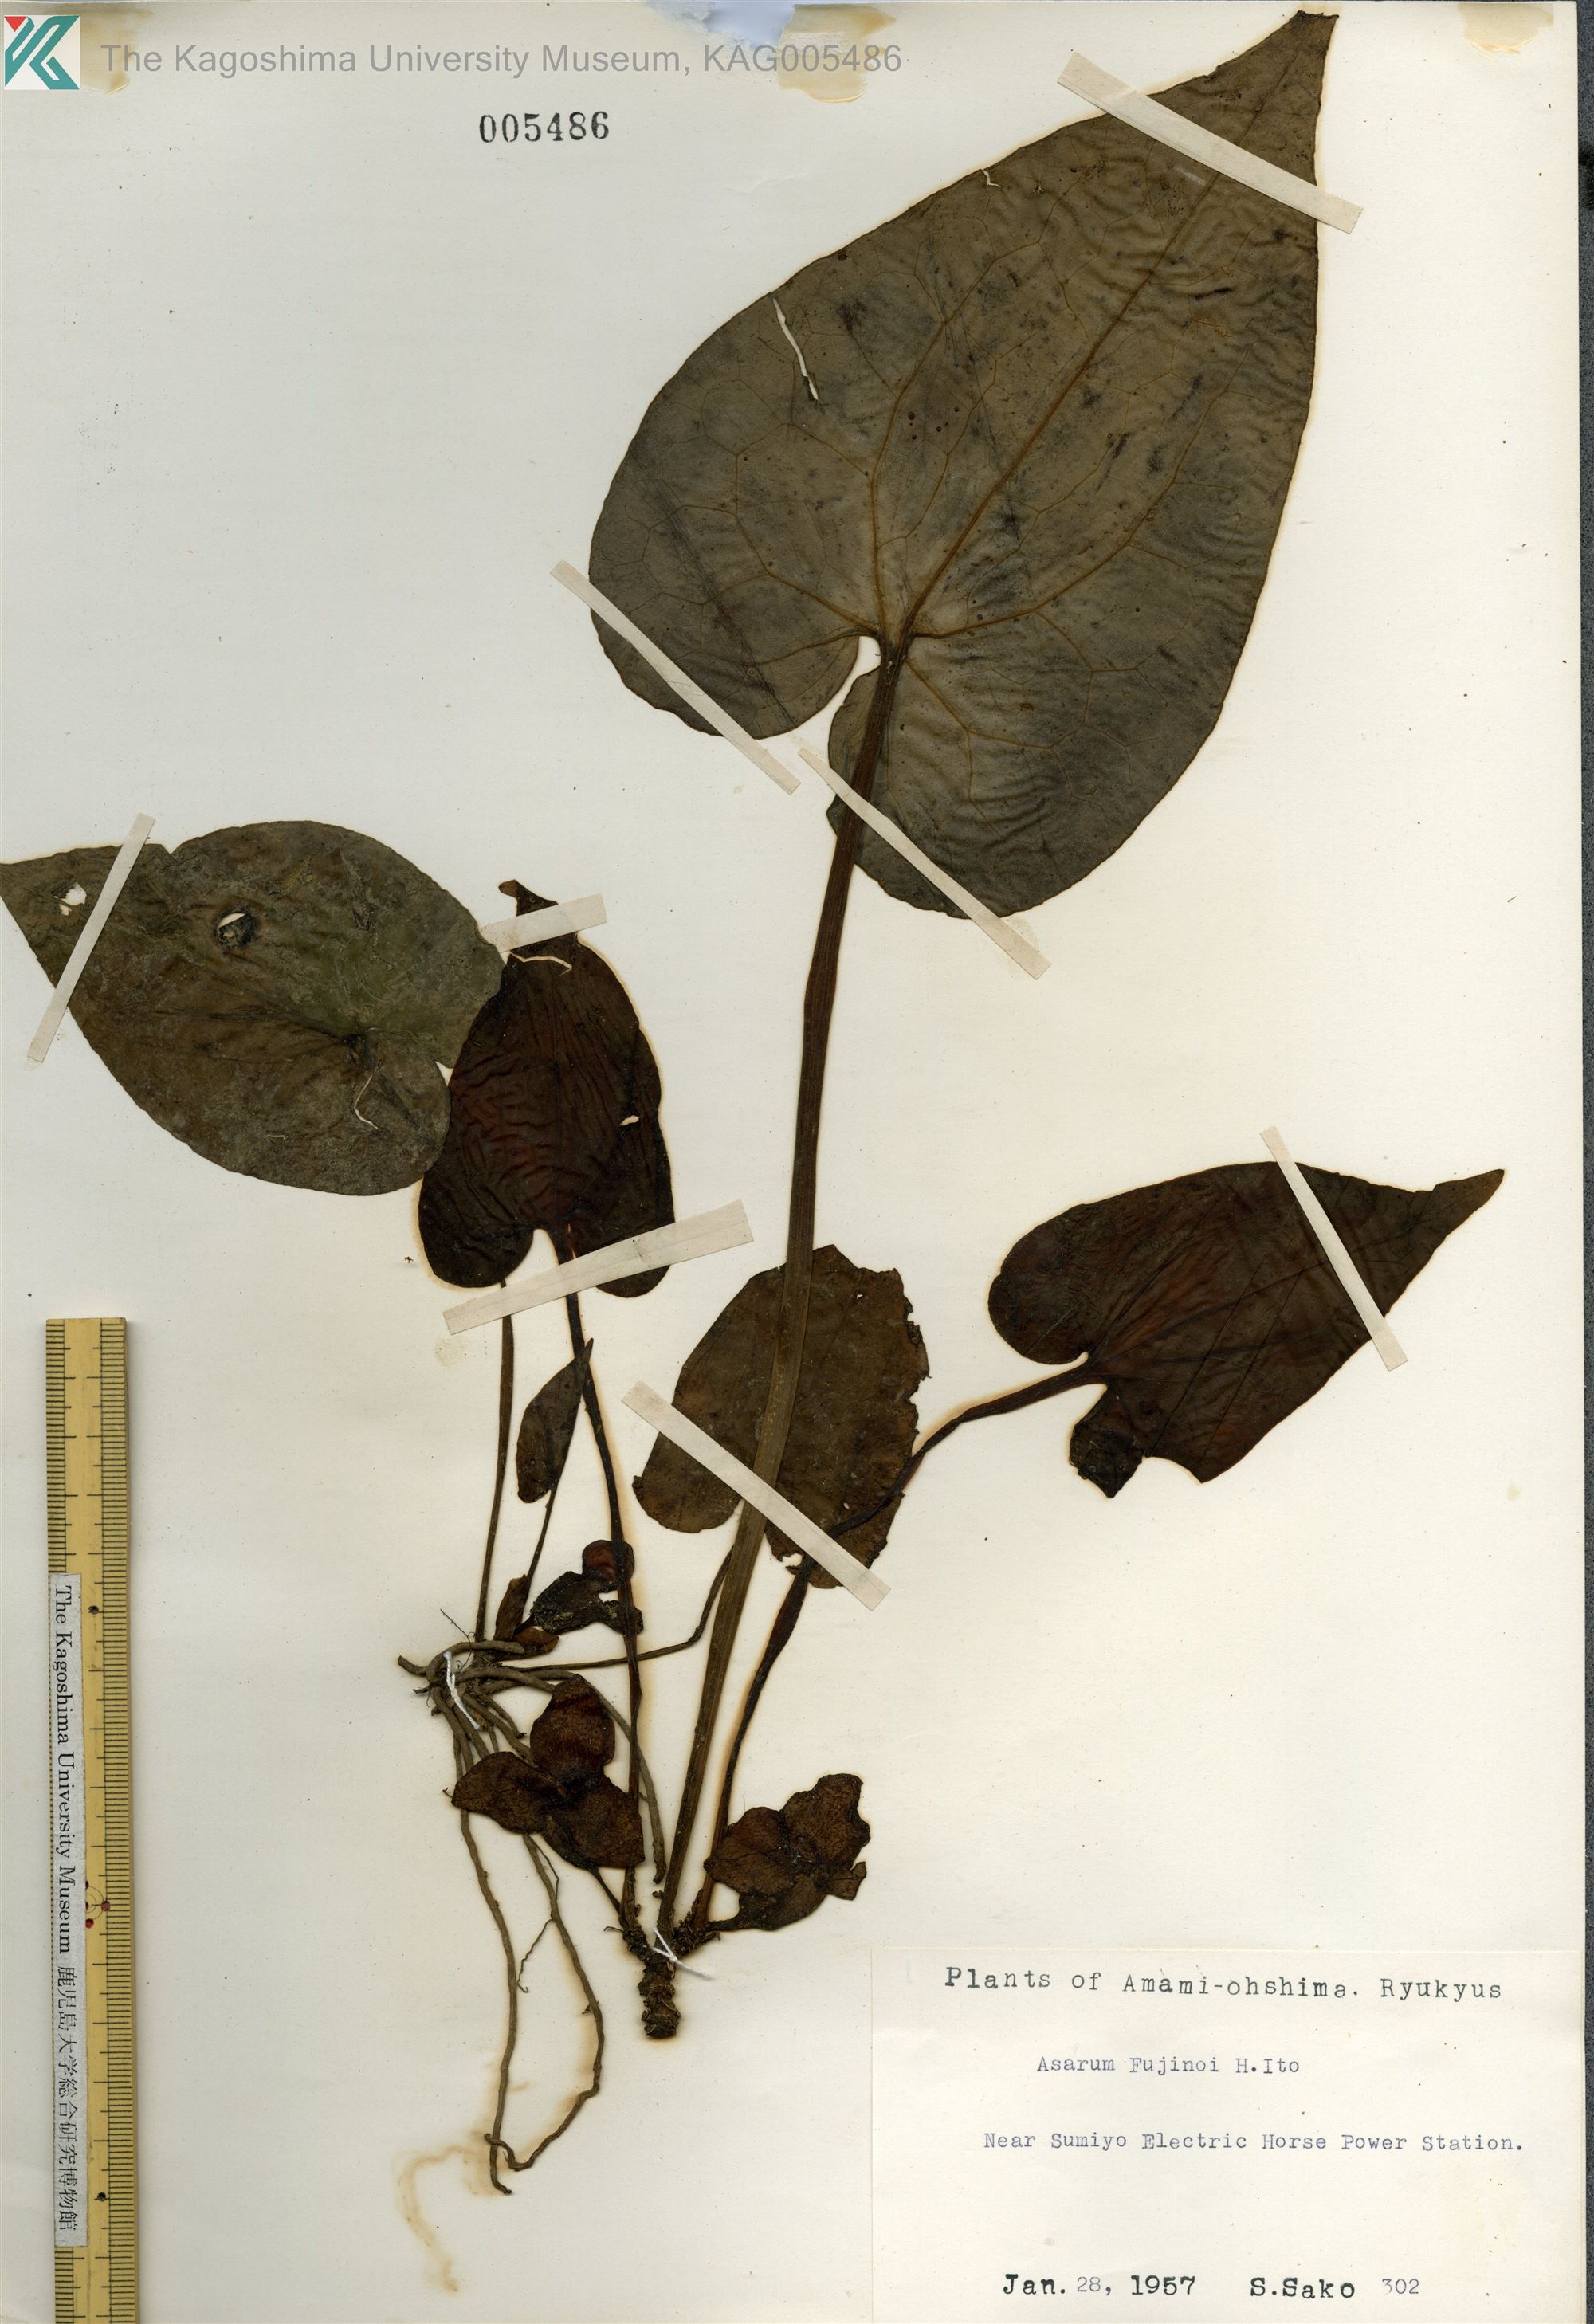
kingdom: Plantae
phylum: Tracheophyta
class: Magnoliopsida
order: Piperales
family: Aristolochiaceae
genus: Asarum
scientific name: Asarum
